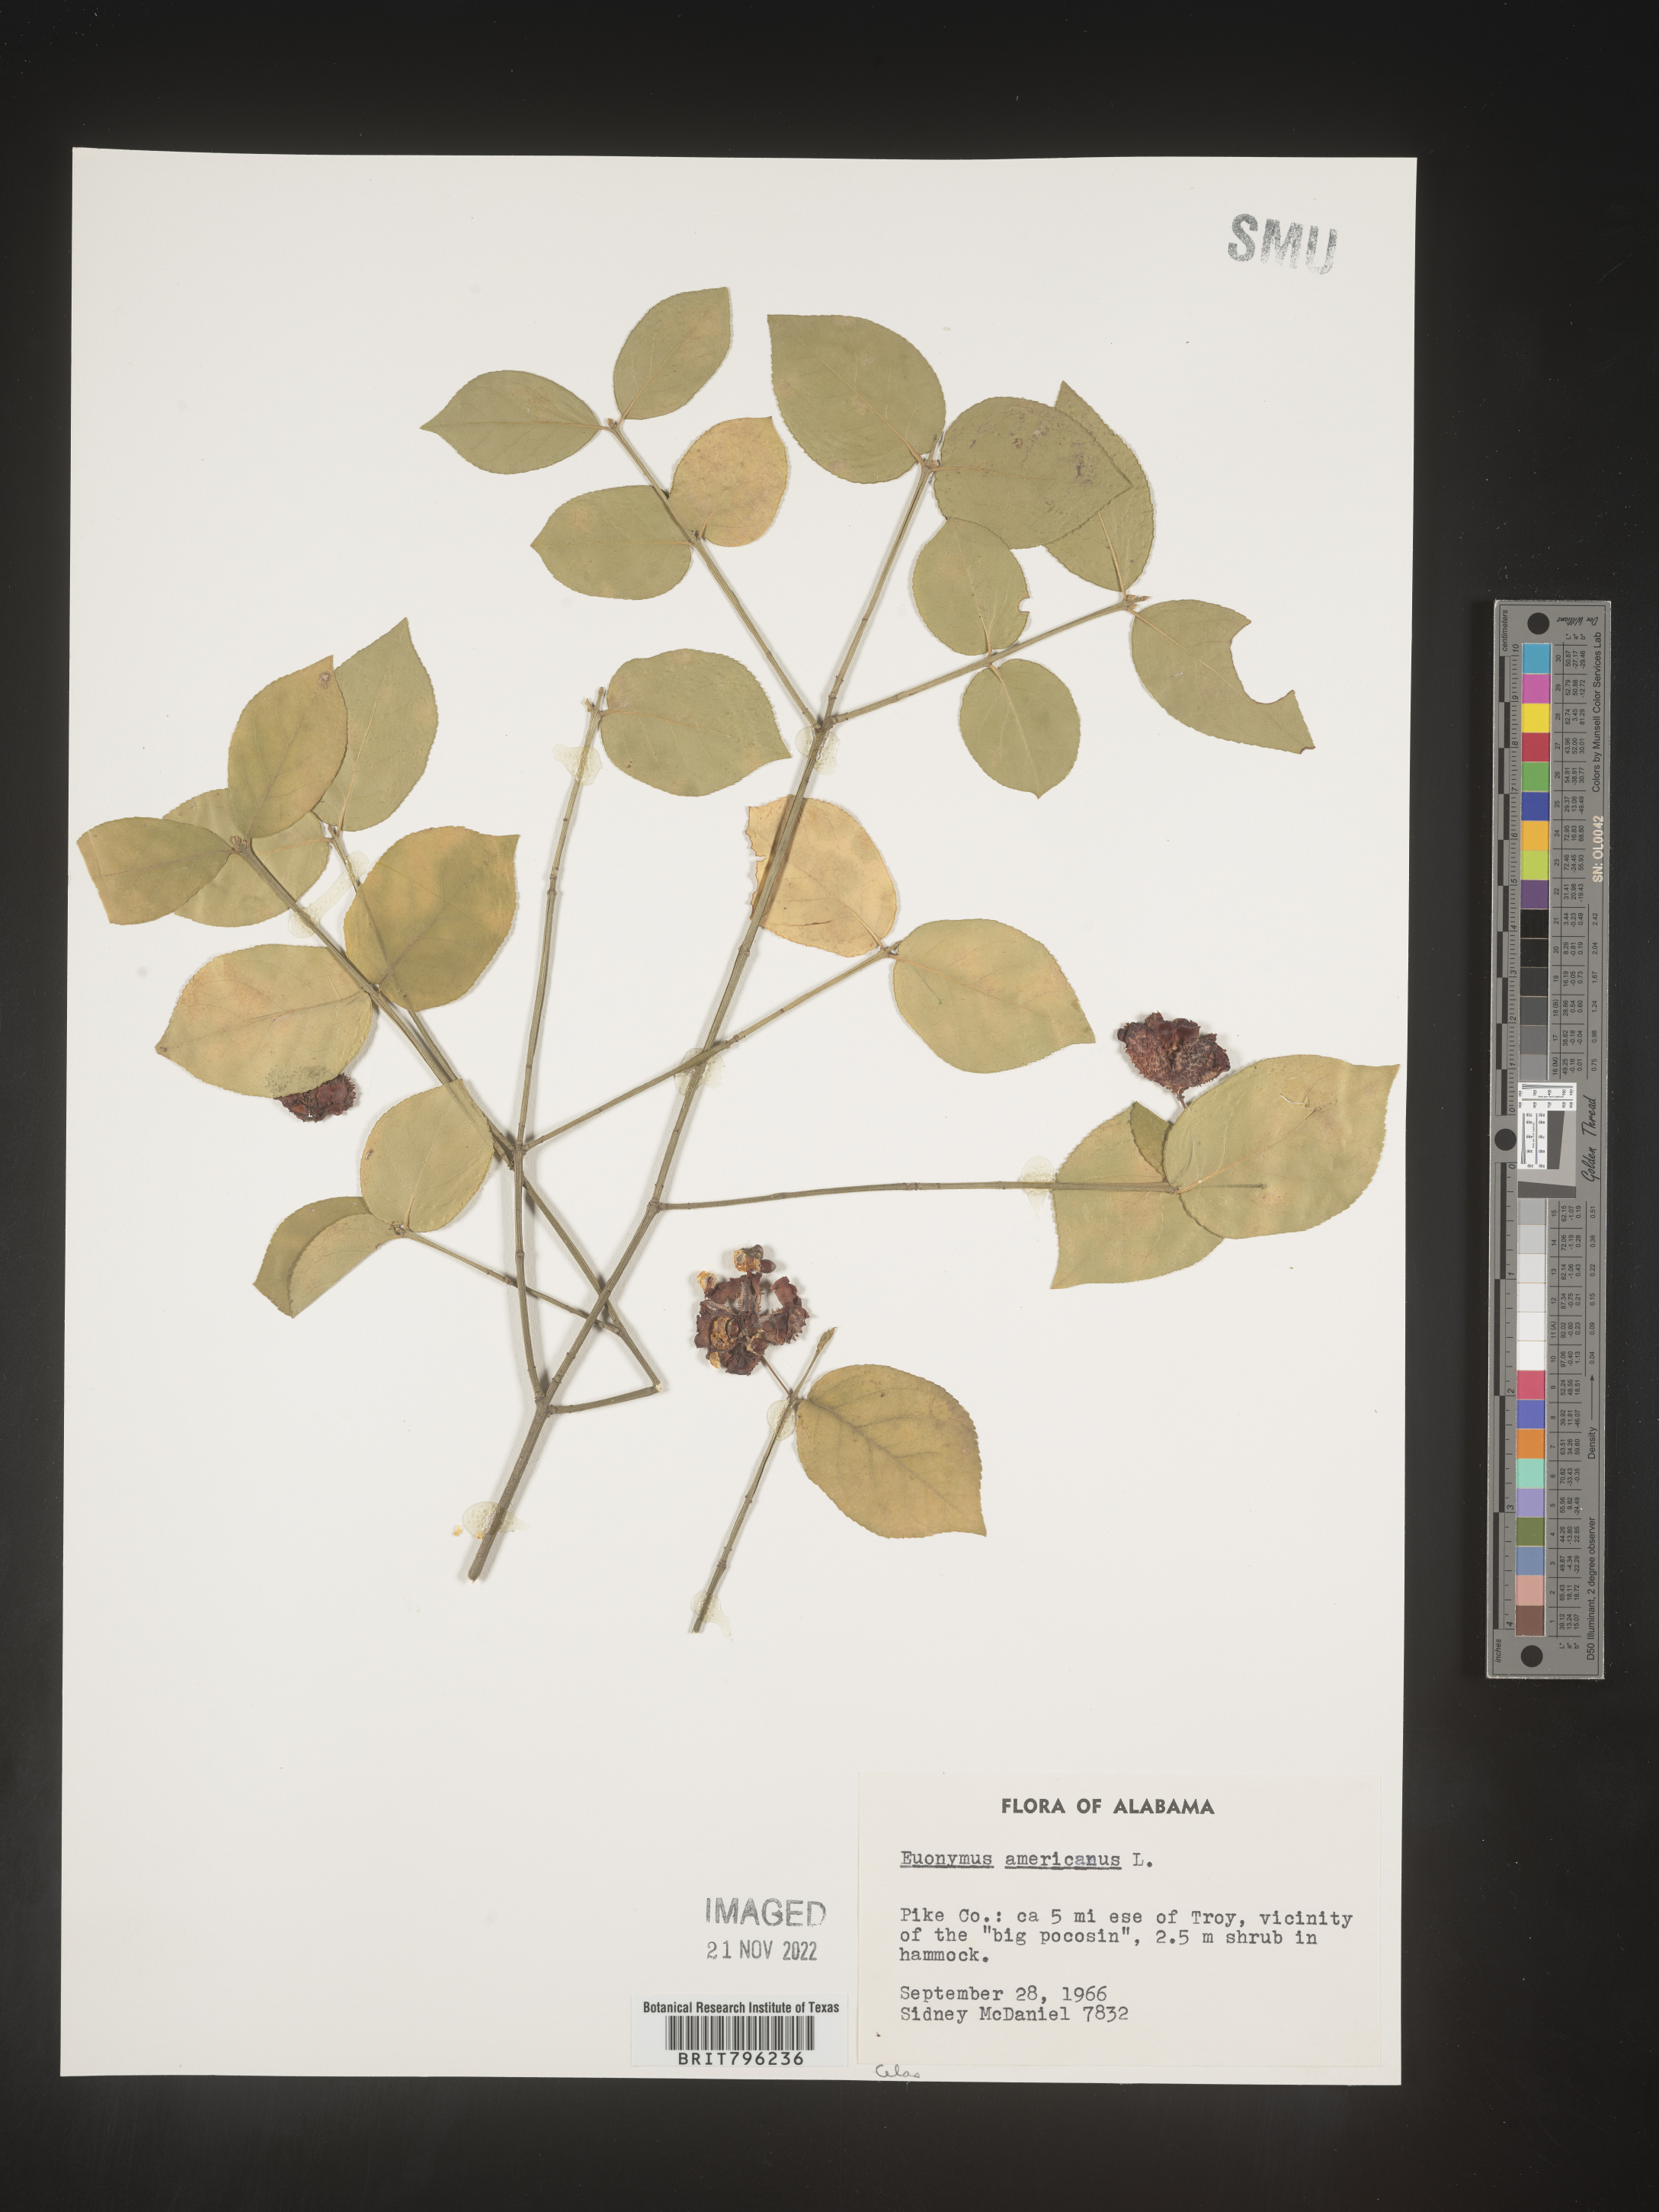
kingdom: Plantae
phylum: Tracheophyta
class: Magnoliopsida
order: Celastrales
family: Celastraceae
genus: Euonymus
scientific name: Euonymus americanus
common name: Bursting-heart
